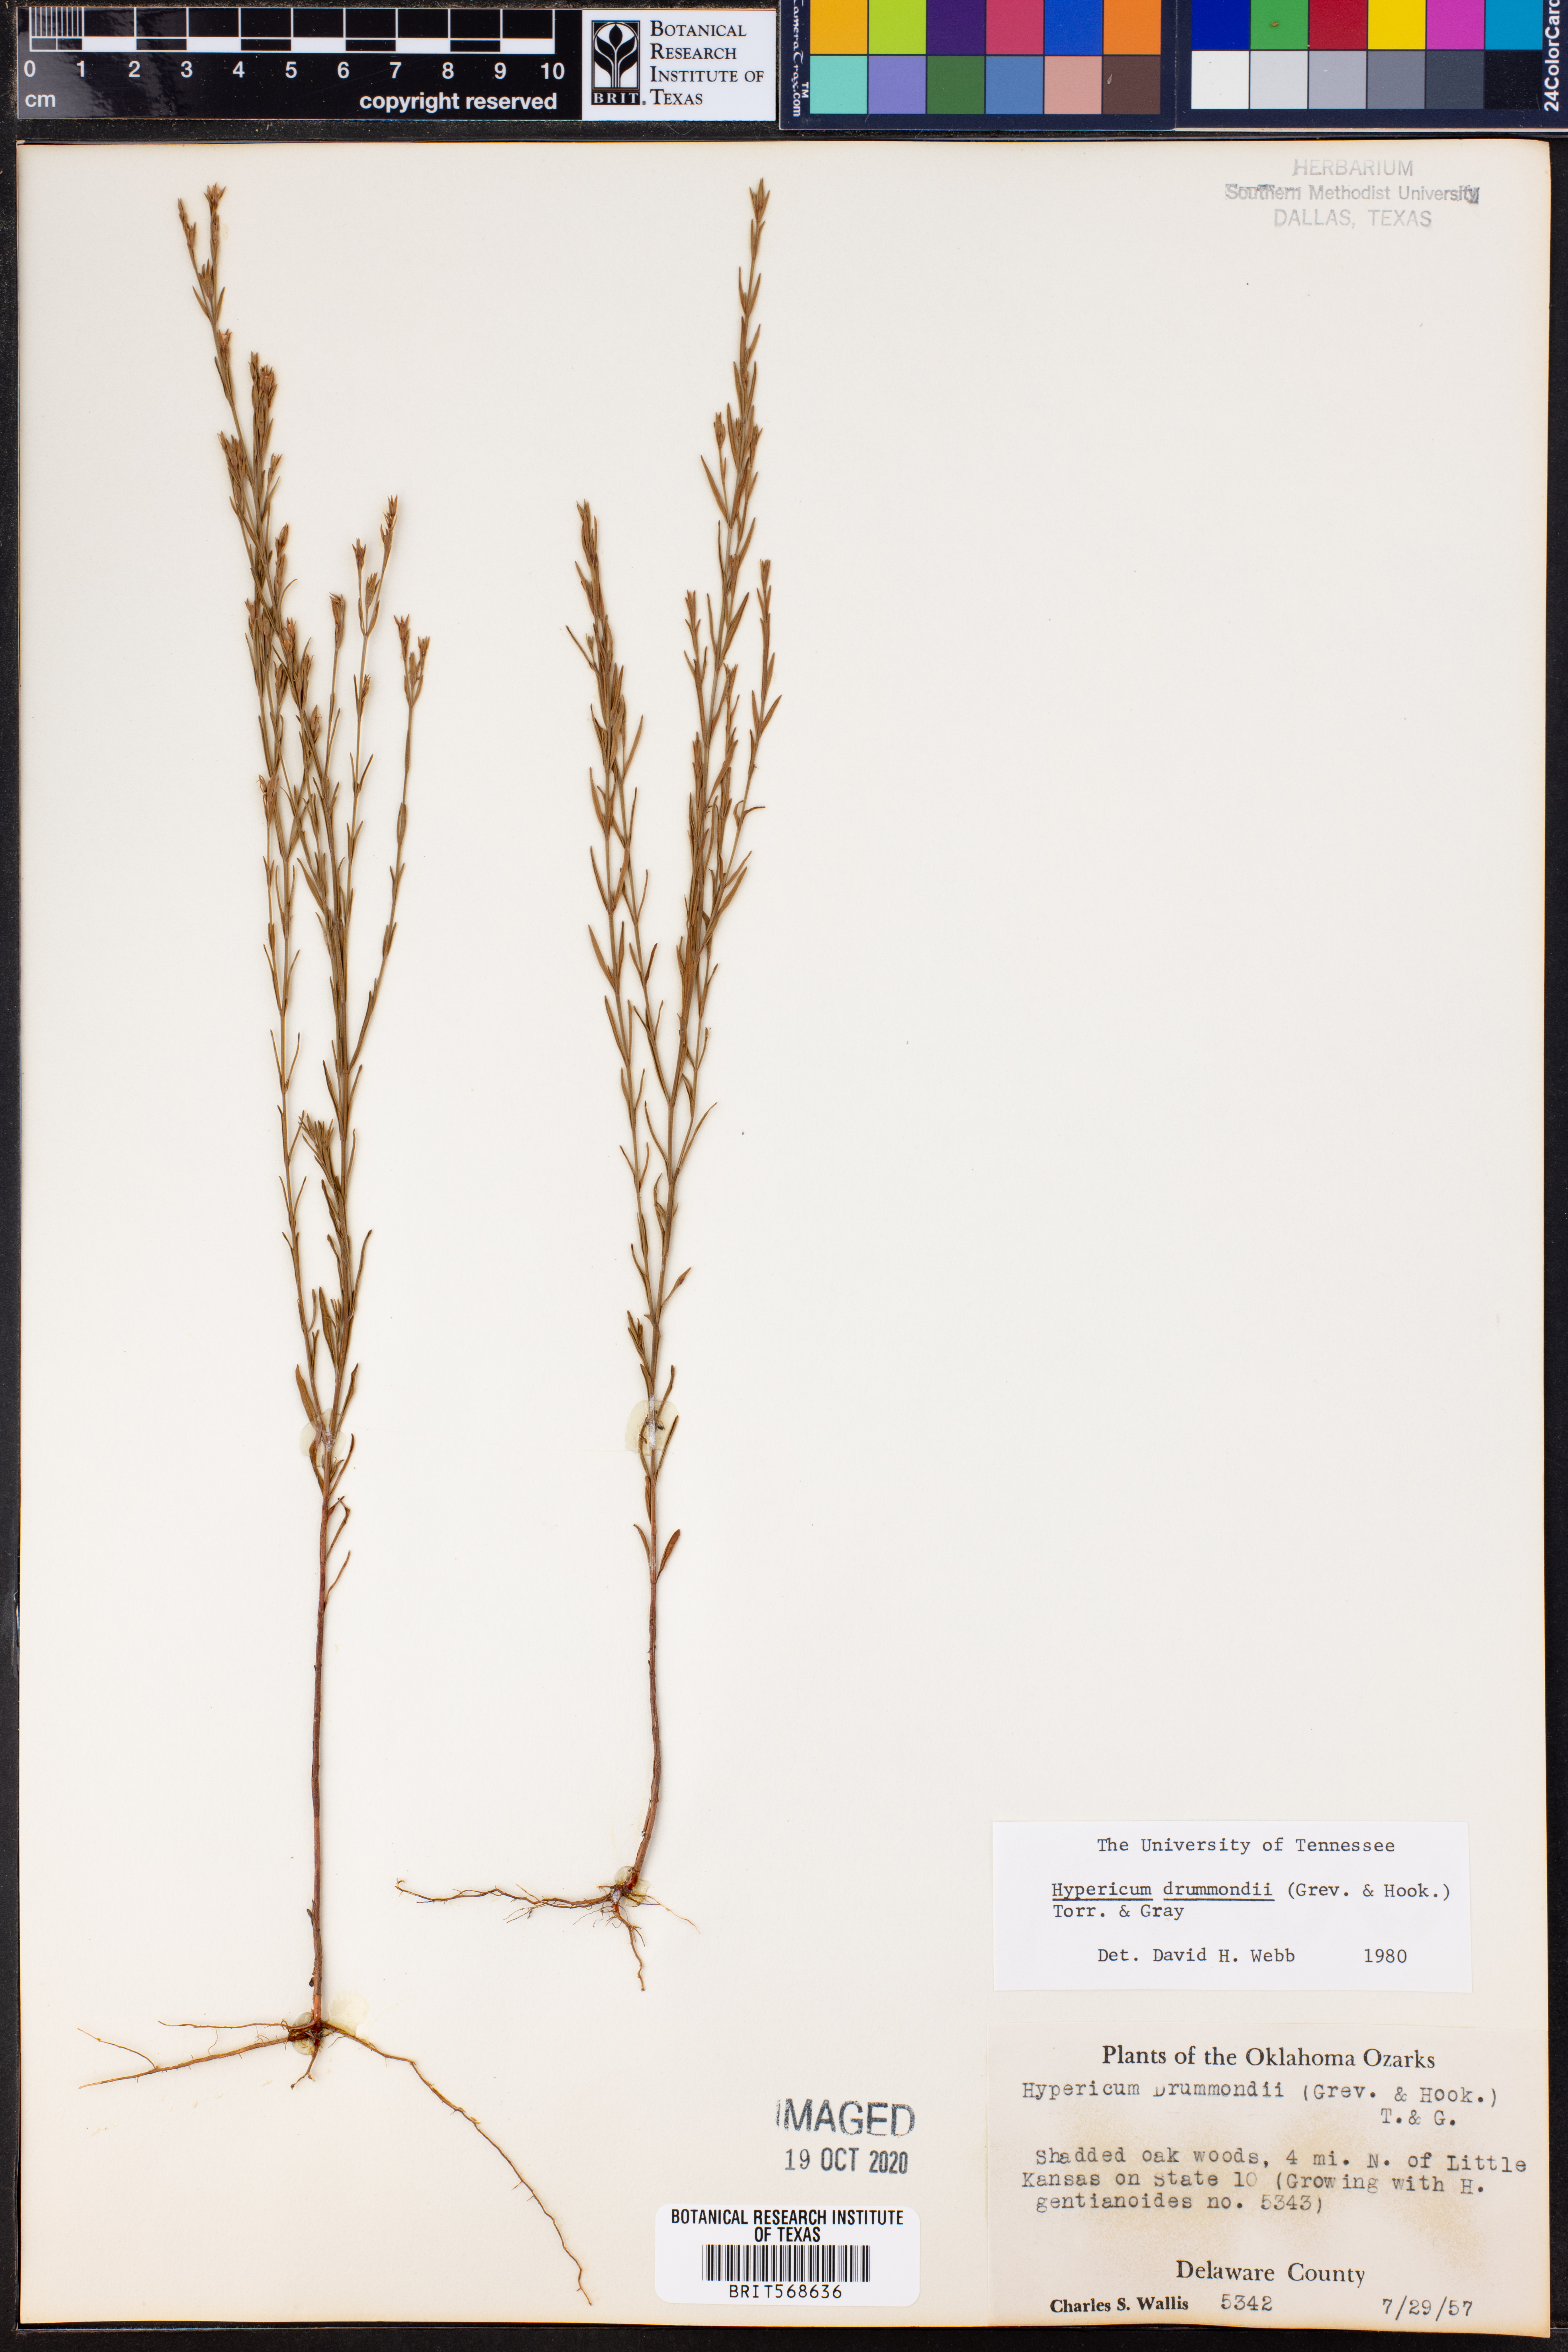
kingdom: Plantae
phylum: Tracheophyta
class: Magnoliopsida
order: Malpighiales
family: Hypericaceae
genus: Hypericum
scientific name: Hypericum drummondii
